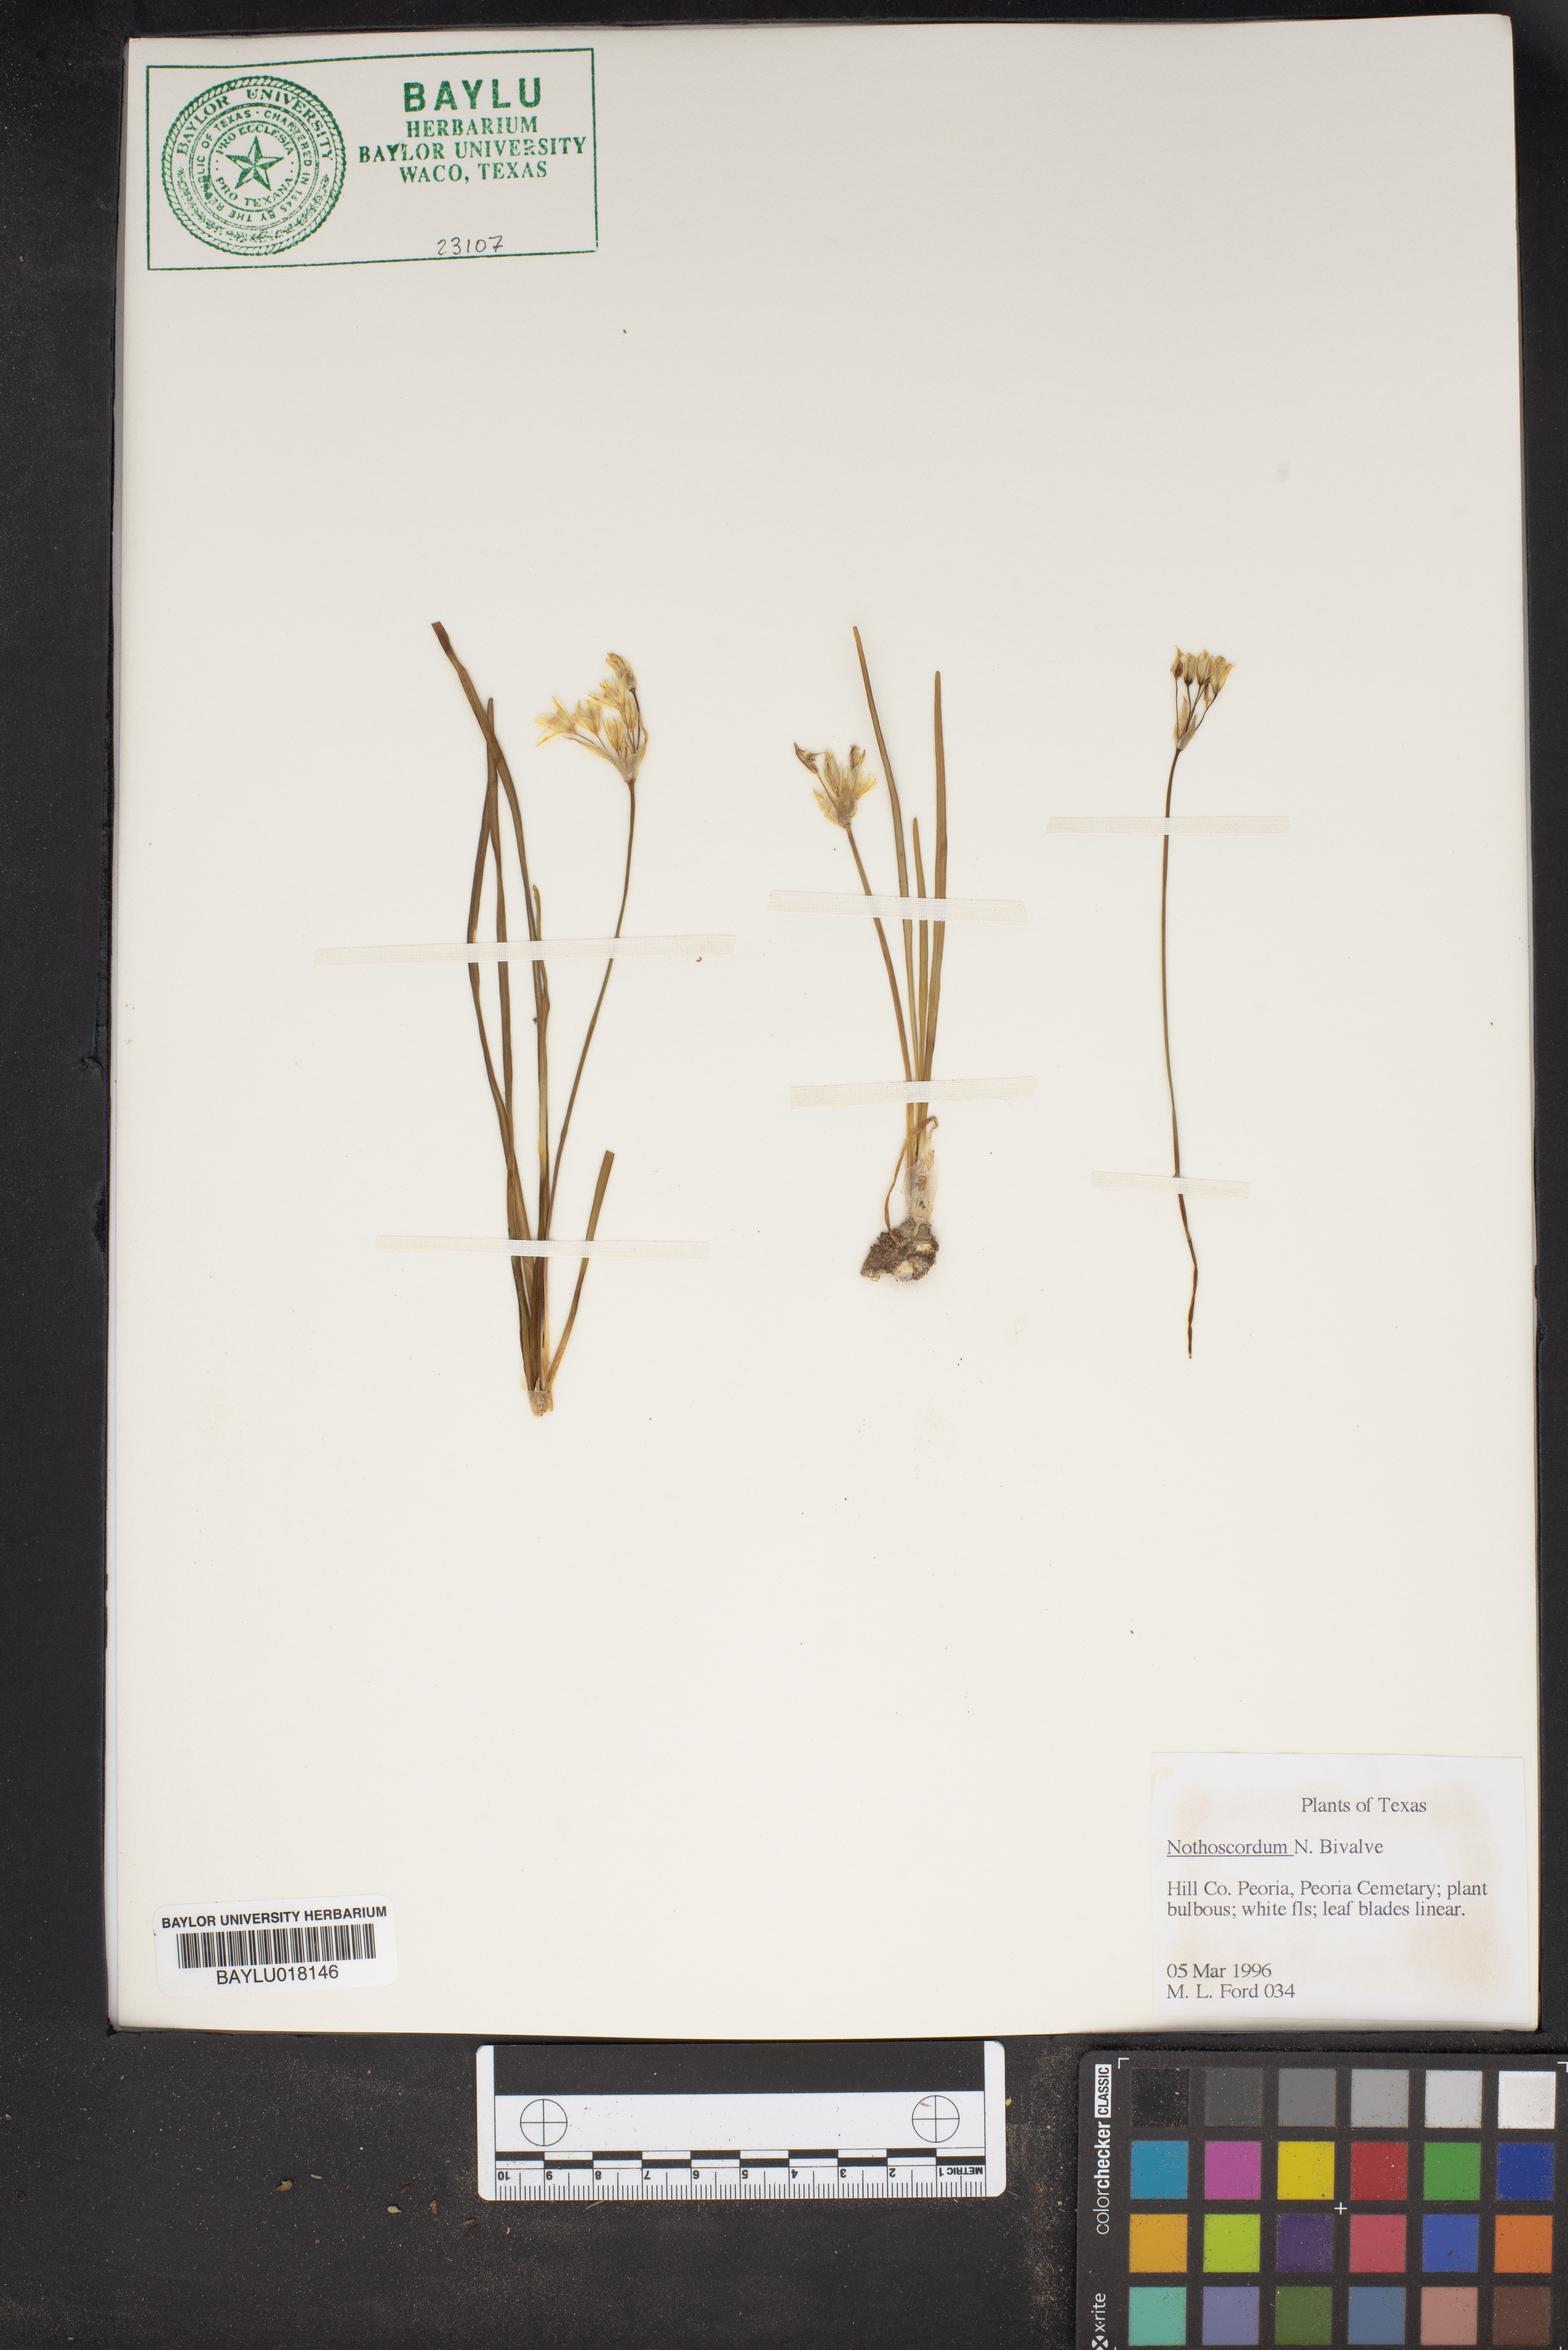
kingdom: Plantae
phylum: Tracheophyta
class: Liliopsida
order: Asparagales
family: Amaryllidaceae
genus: Nothoscordum
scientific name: Nothoscordum bivalve
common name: Crow-poison
